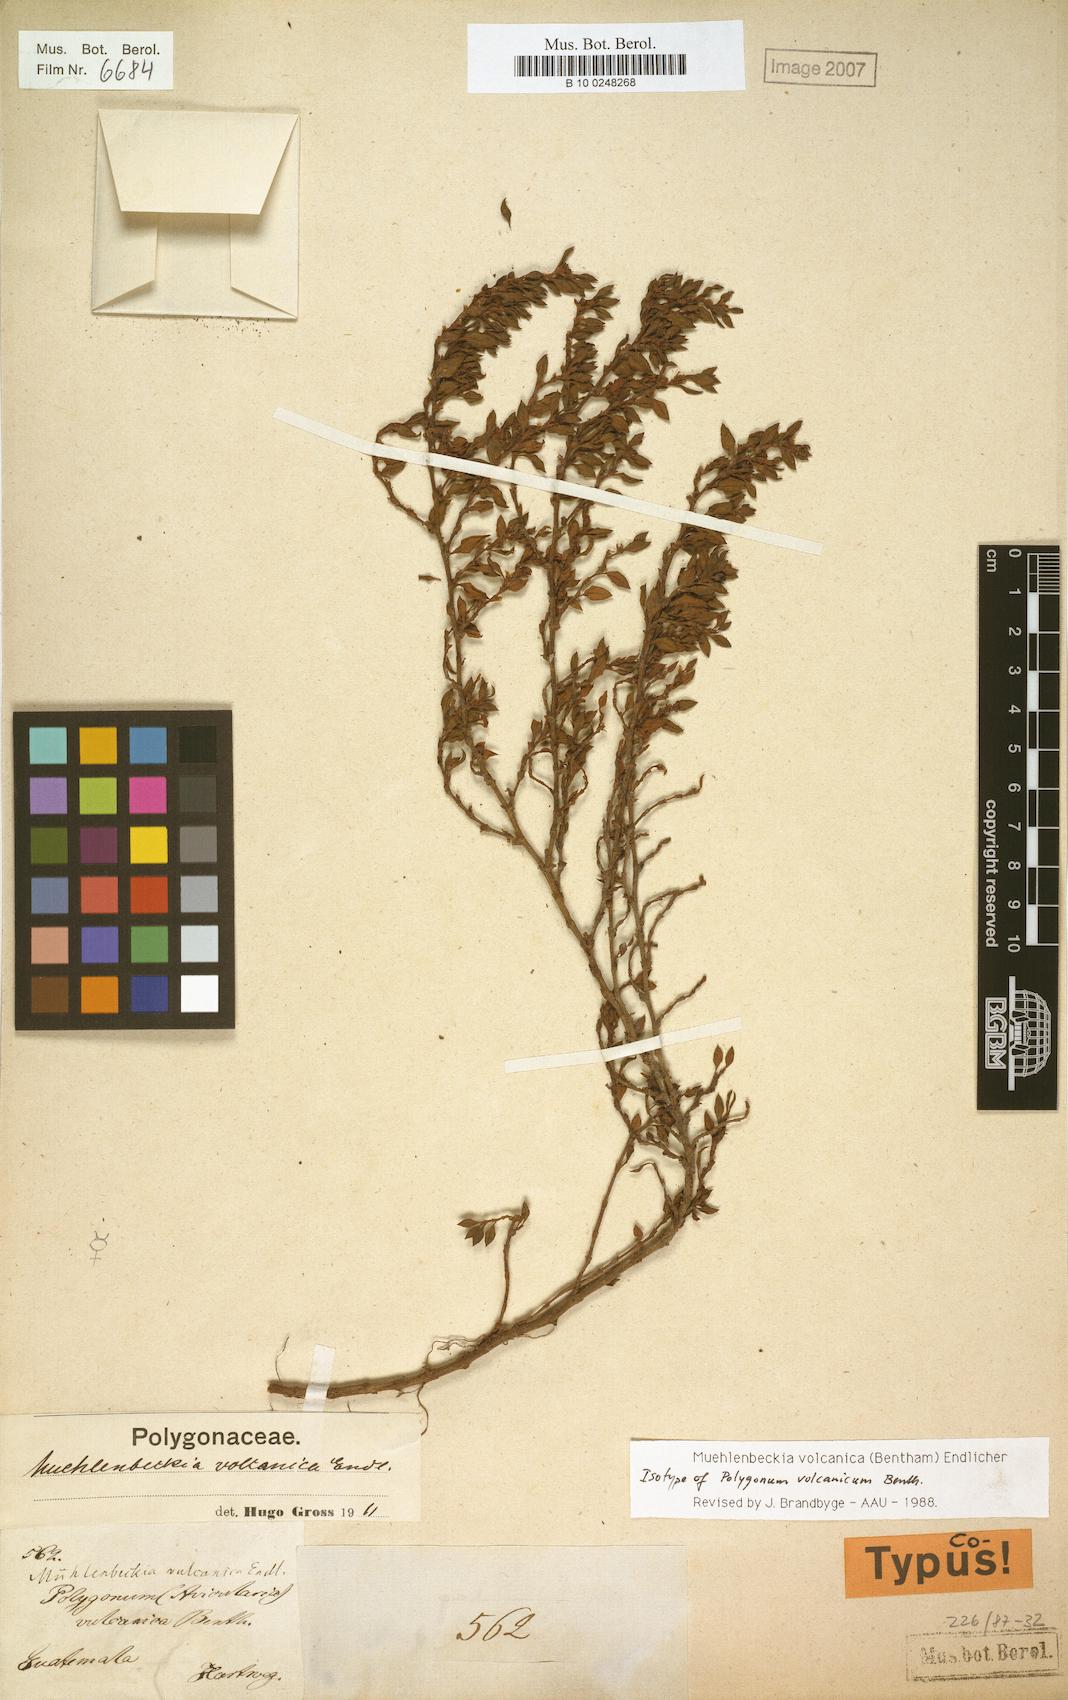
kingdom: Plantae
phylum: Tracheophyta
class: Magnoliopsida
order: Caryophyllales
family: Polygonaceae
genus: Muehlenbeckia
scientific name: Muehlenbeckia volcanica
